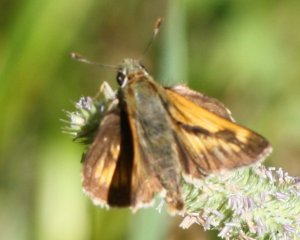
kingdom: Animalia
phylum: Arthropoda
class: Insecta
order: Lepidoptera
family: Hesperiidae
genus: Polites
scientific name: Polites
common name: Long Dash Skipper
